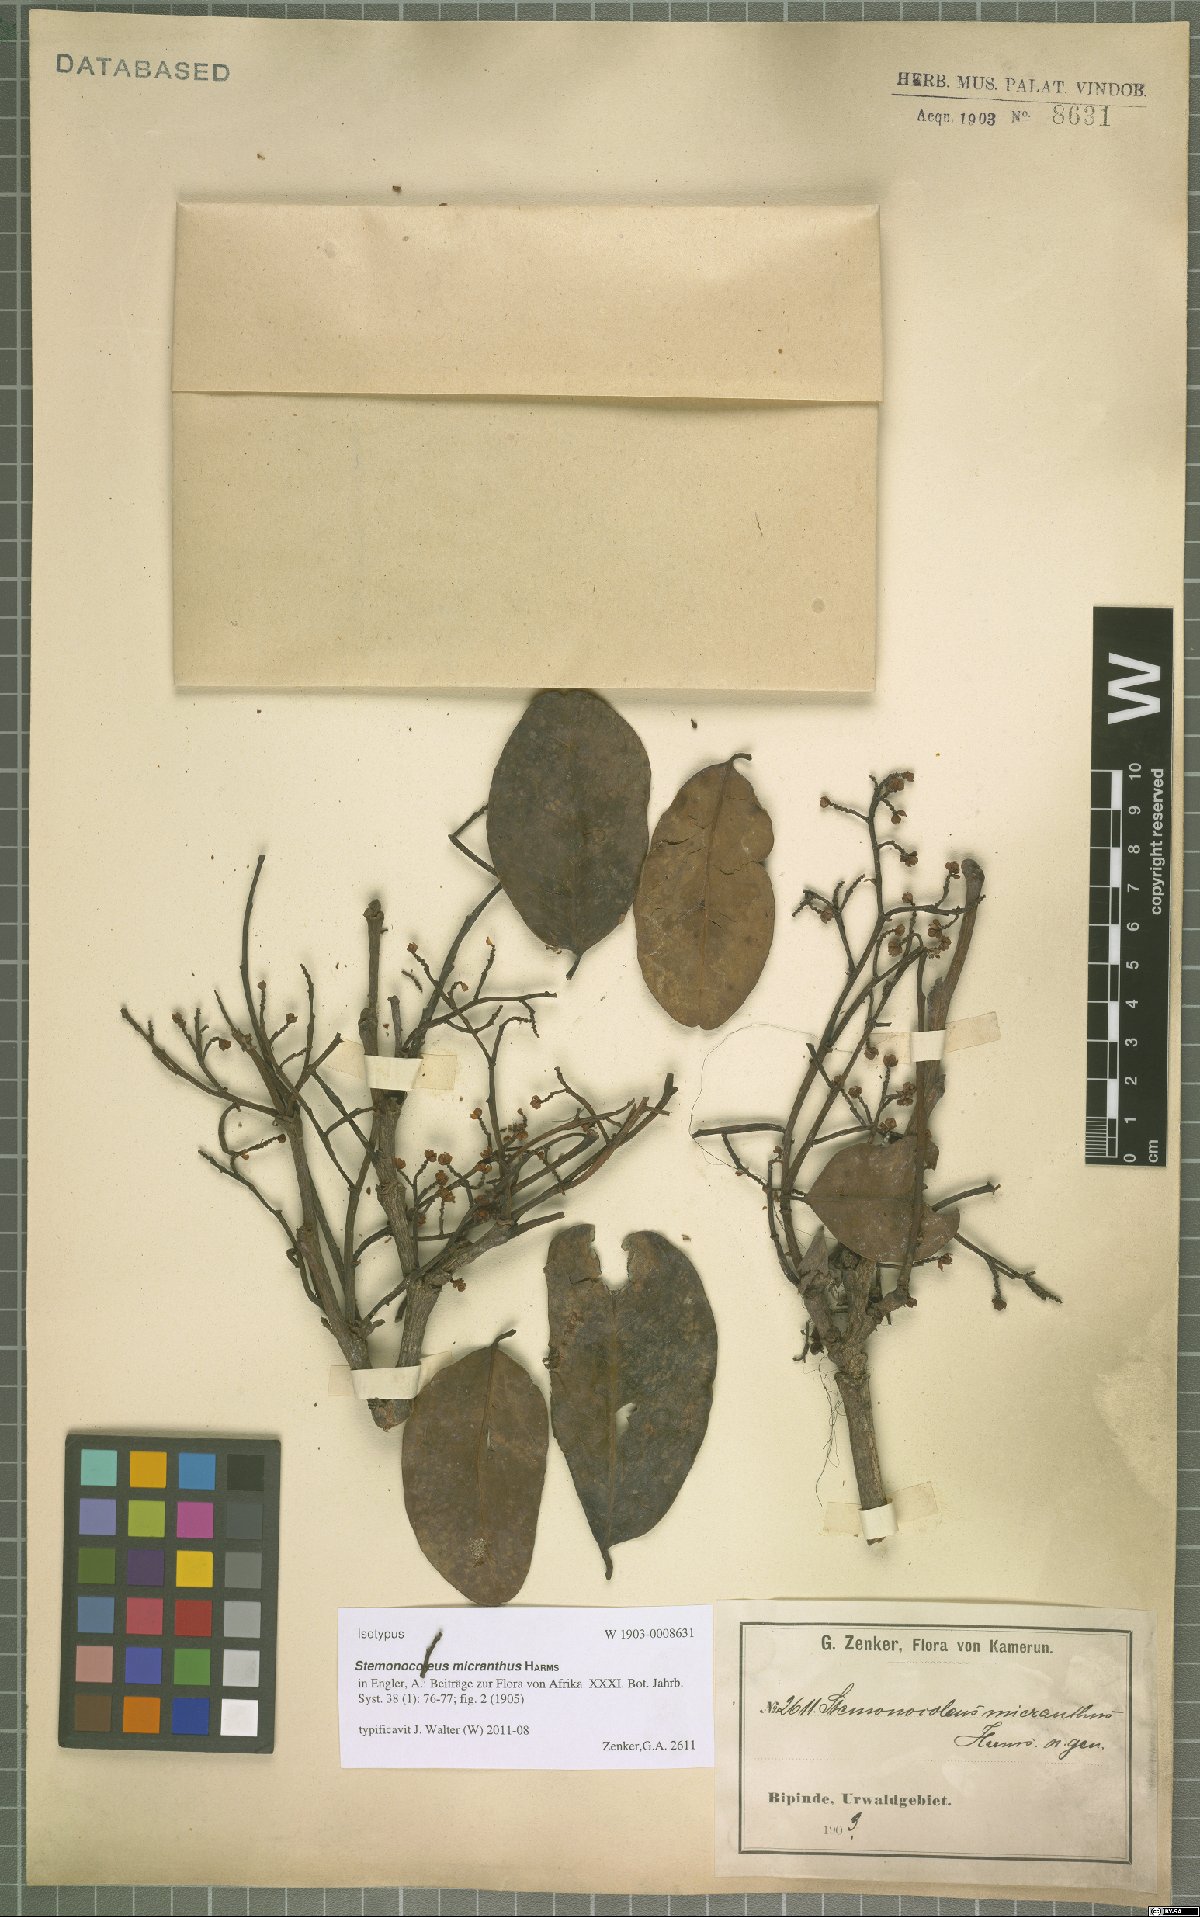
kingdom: Plantae
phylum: Tracheophyta
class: Magnoliopsida
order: Fabales
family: Fabaceae
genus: Stemonocoleus
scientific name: Stemonocoleus micranthus
